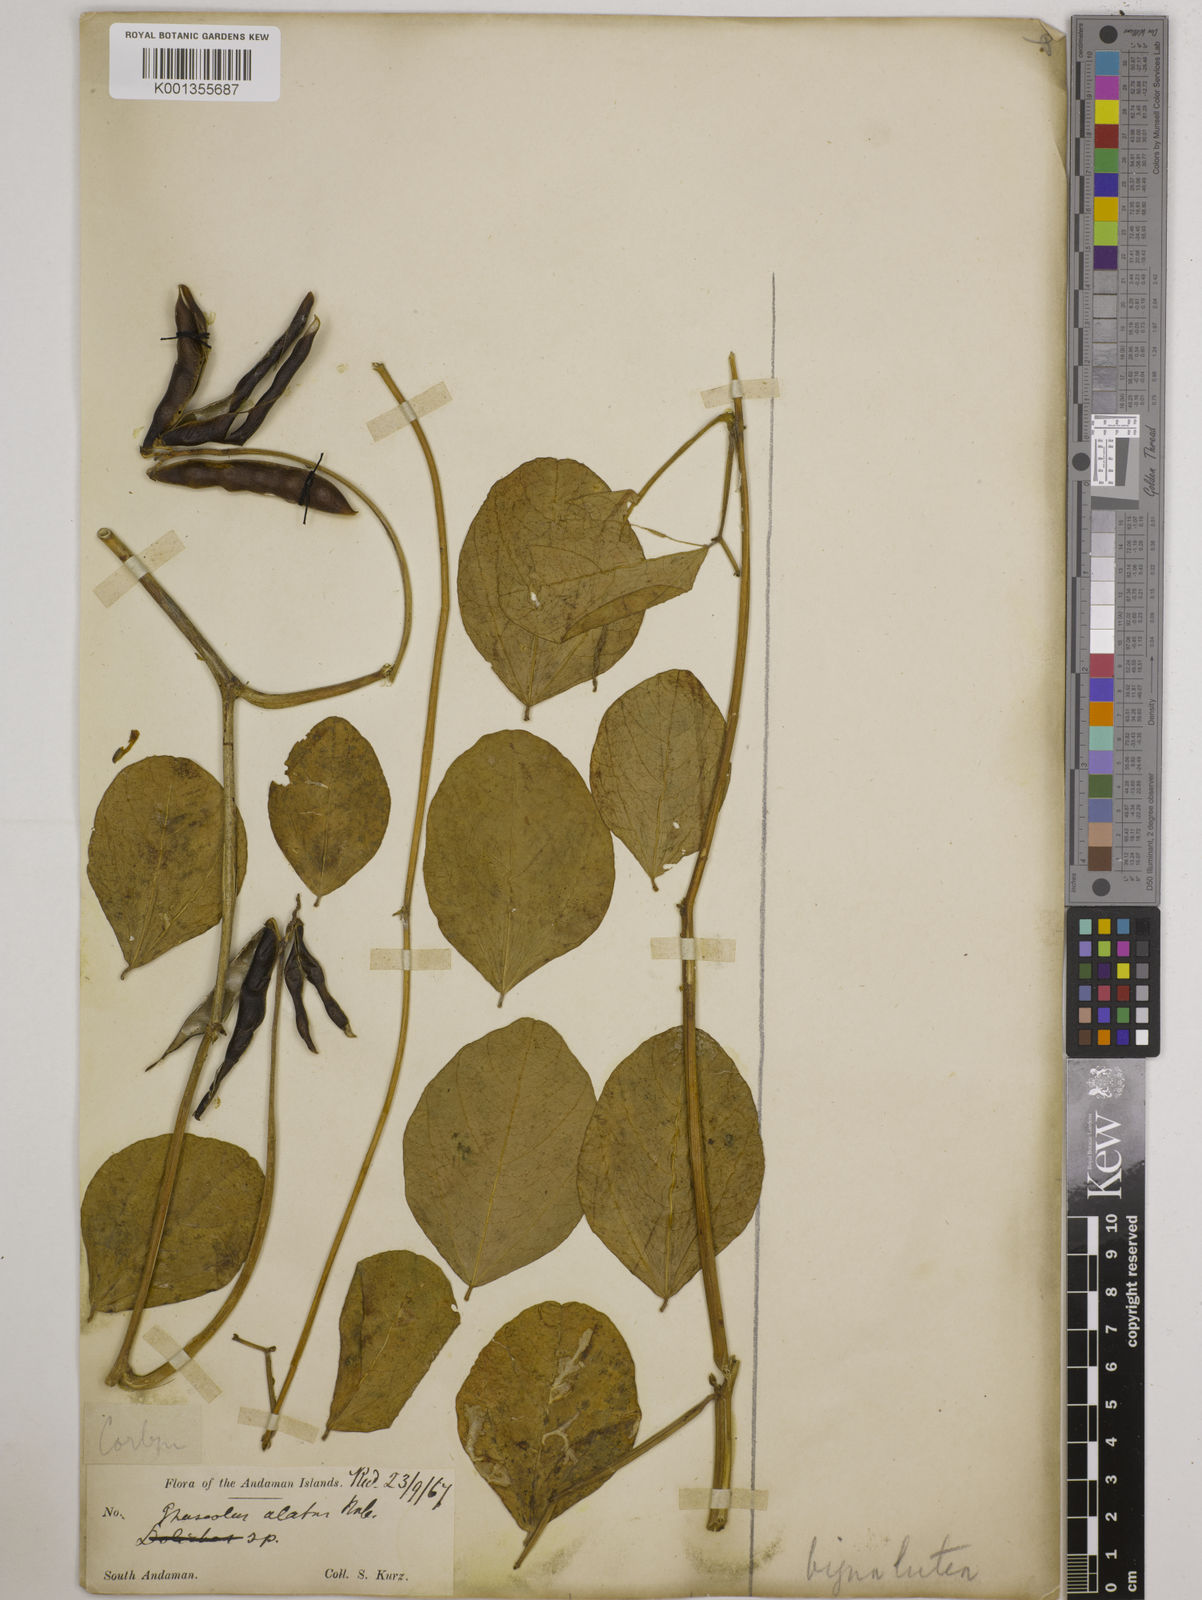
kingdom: Plantae
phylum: Tracheophyta
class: Magnoliopsida
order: Fabales
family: Fabaceae
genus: Vigna
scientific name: Vigna marina
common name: Dune-bean
